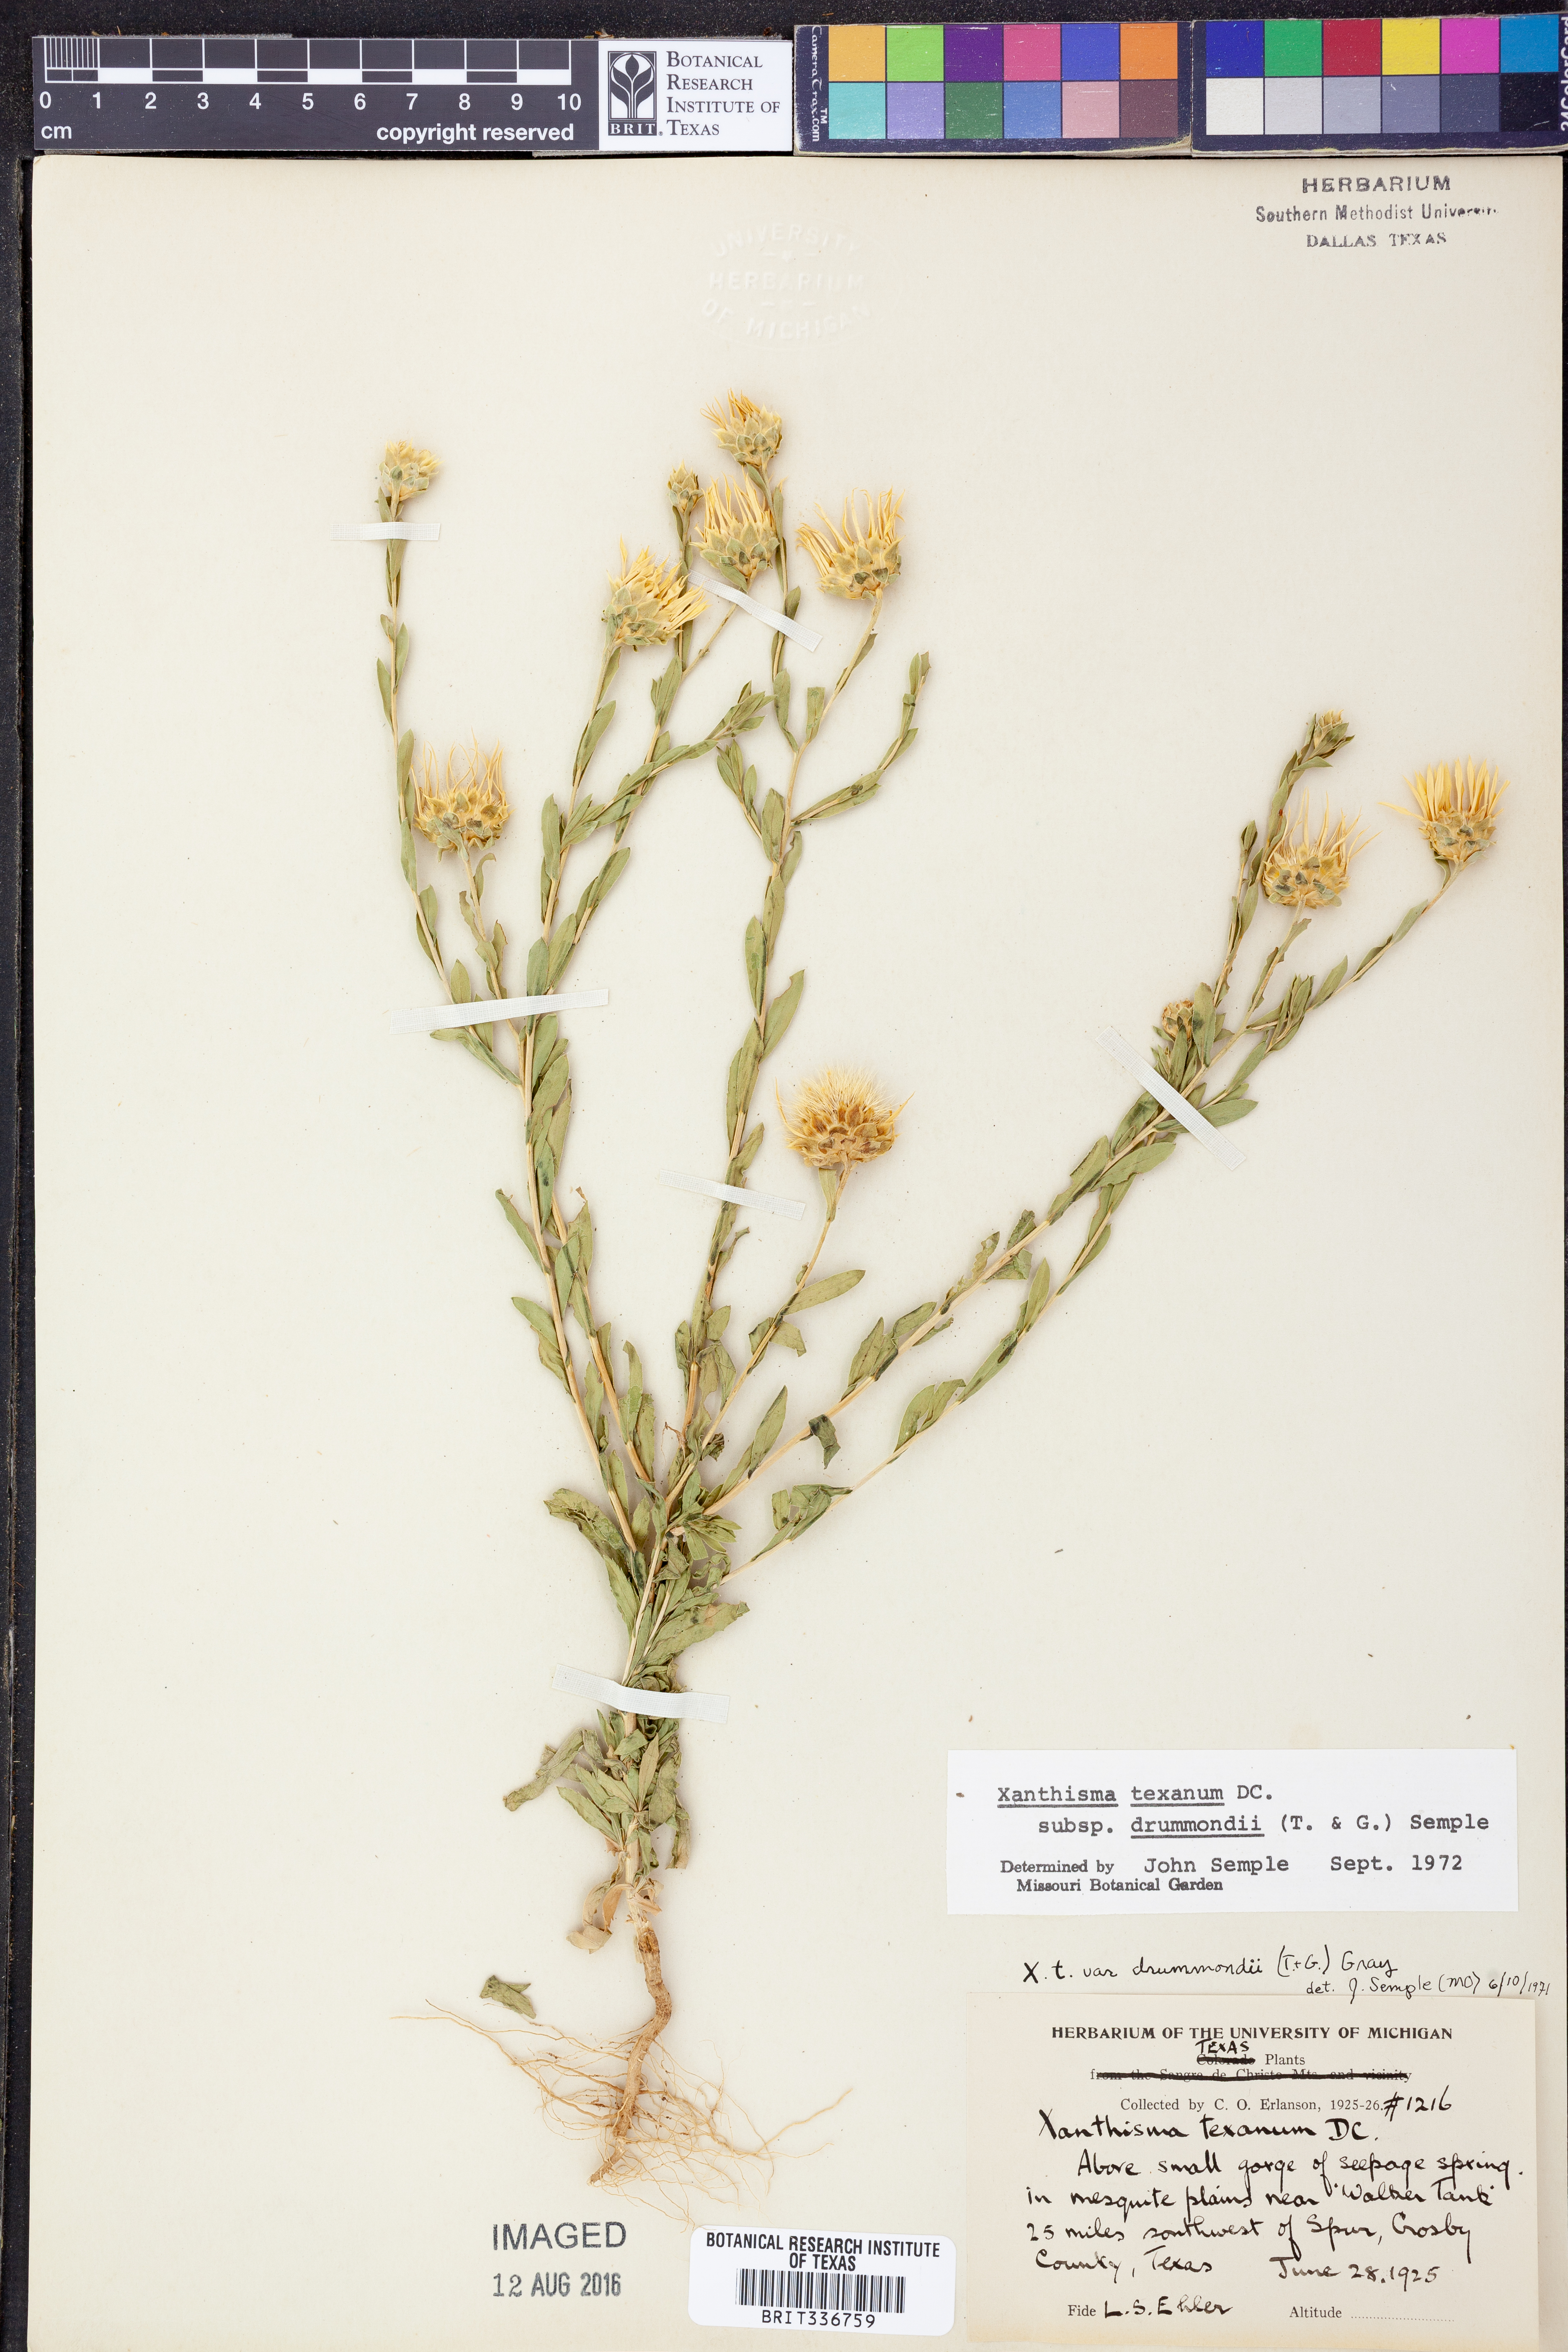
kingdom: Plantae
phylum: Tracheophyta
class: Magnoliopsida
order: Asterales
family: Asteraceae
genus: Xanthisma
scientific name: Xanthisma texanum
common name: Texas sleepy daisy
